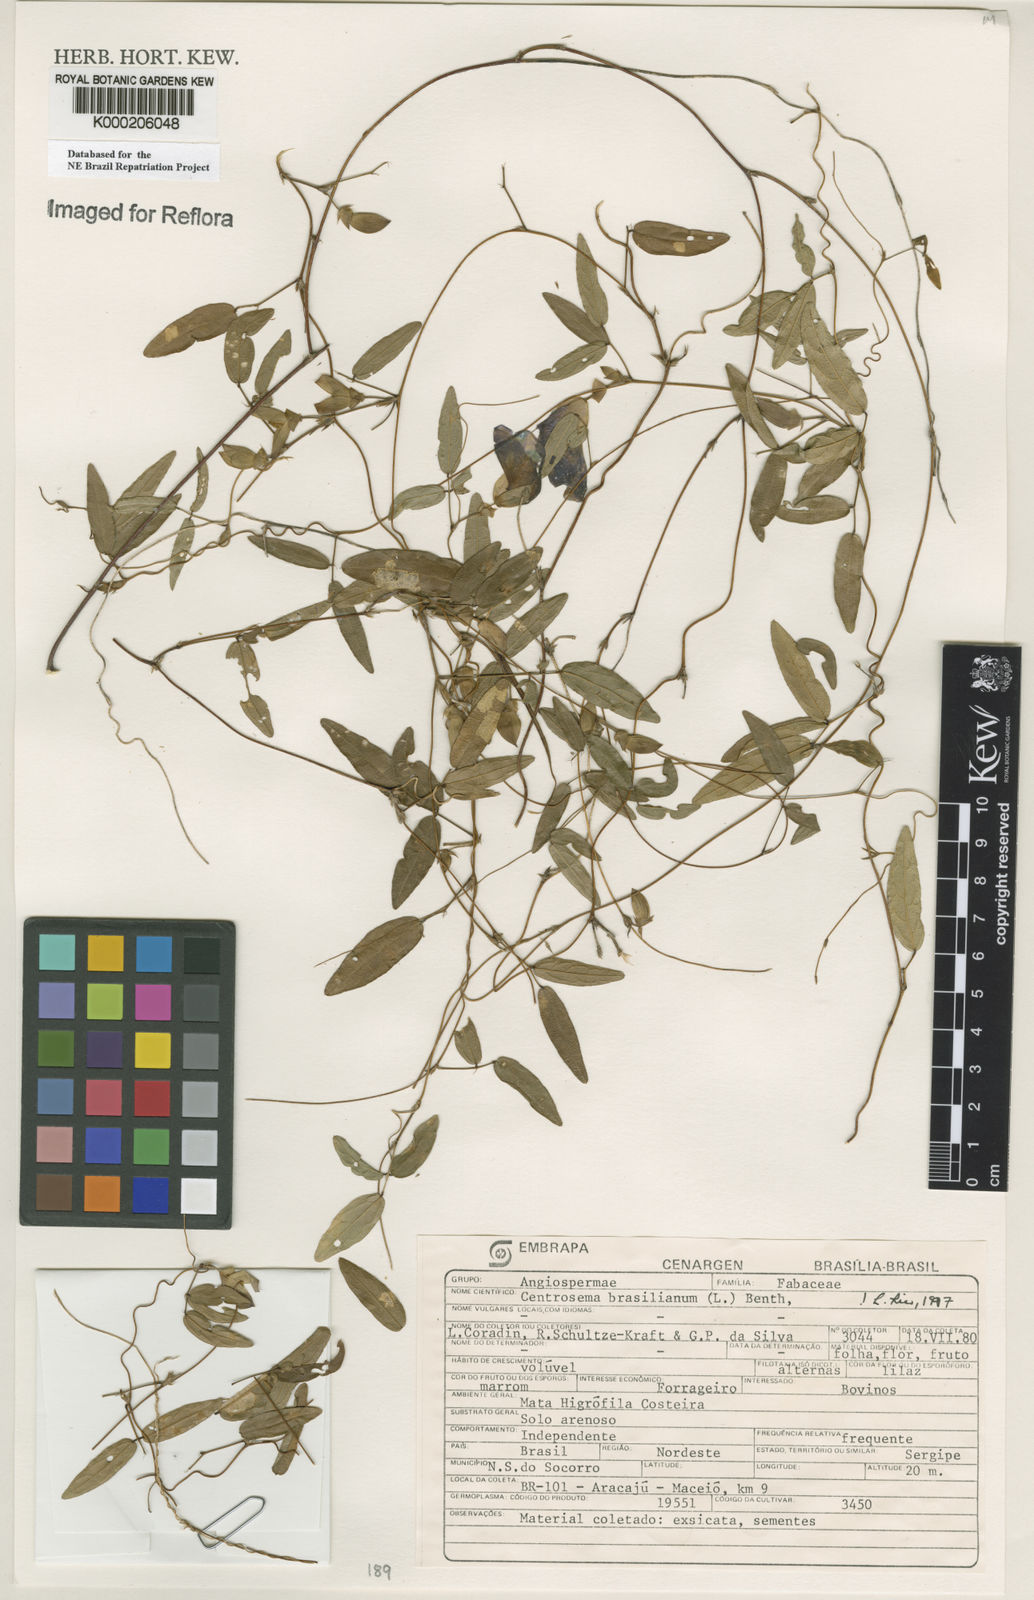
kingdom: Plantae
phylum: Tracheophyta
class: Magnoliopsida
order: Fabales
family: Fabaceae
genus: Centrosema
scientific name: Centrosema brasilianum
